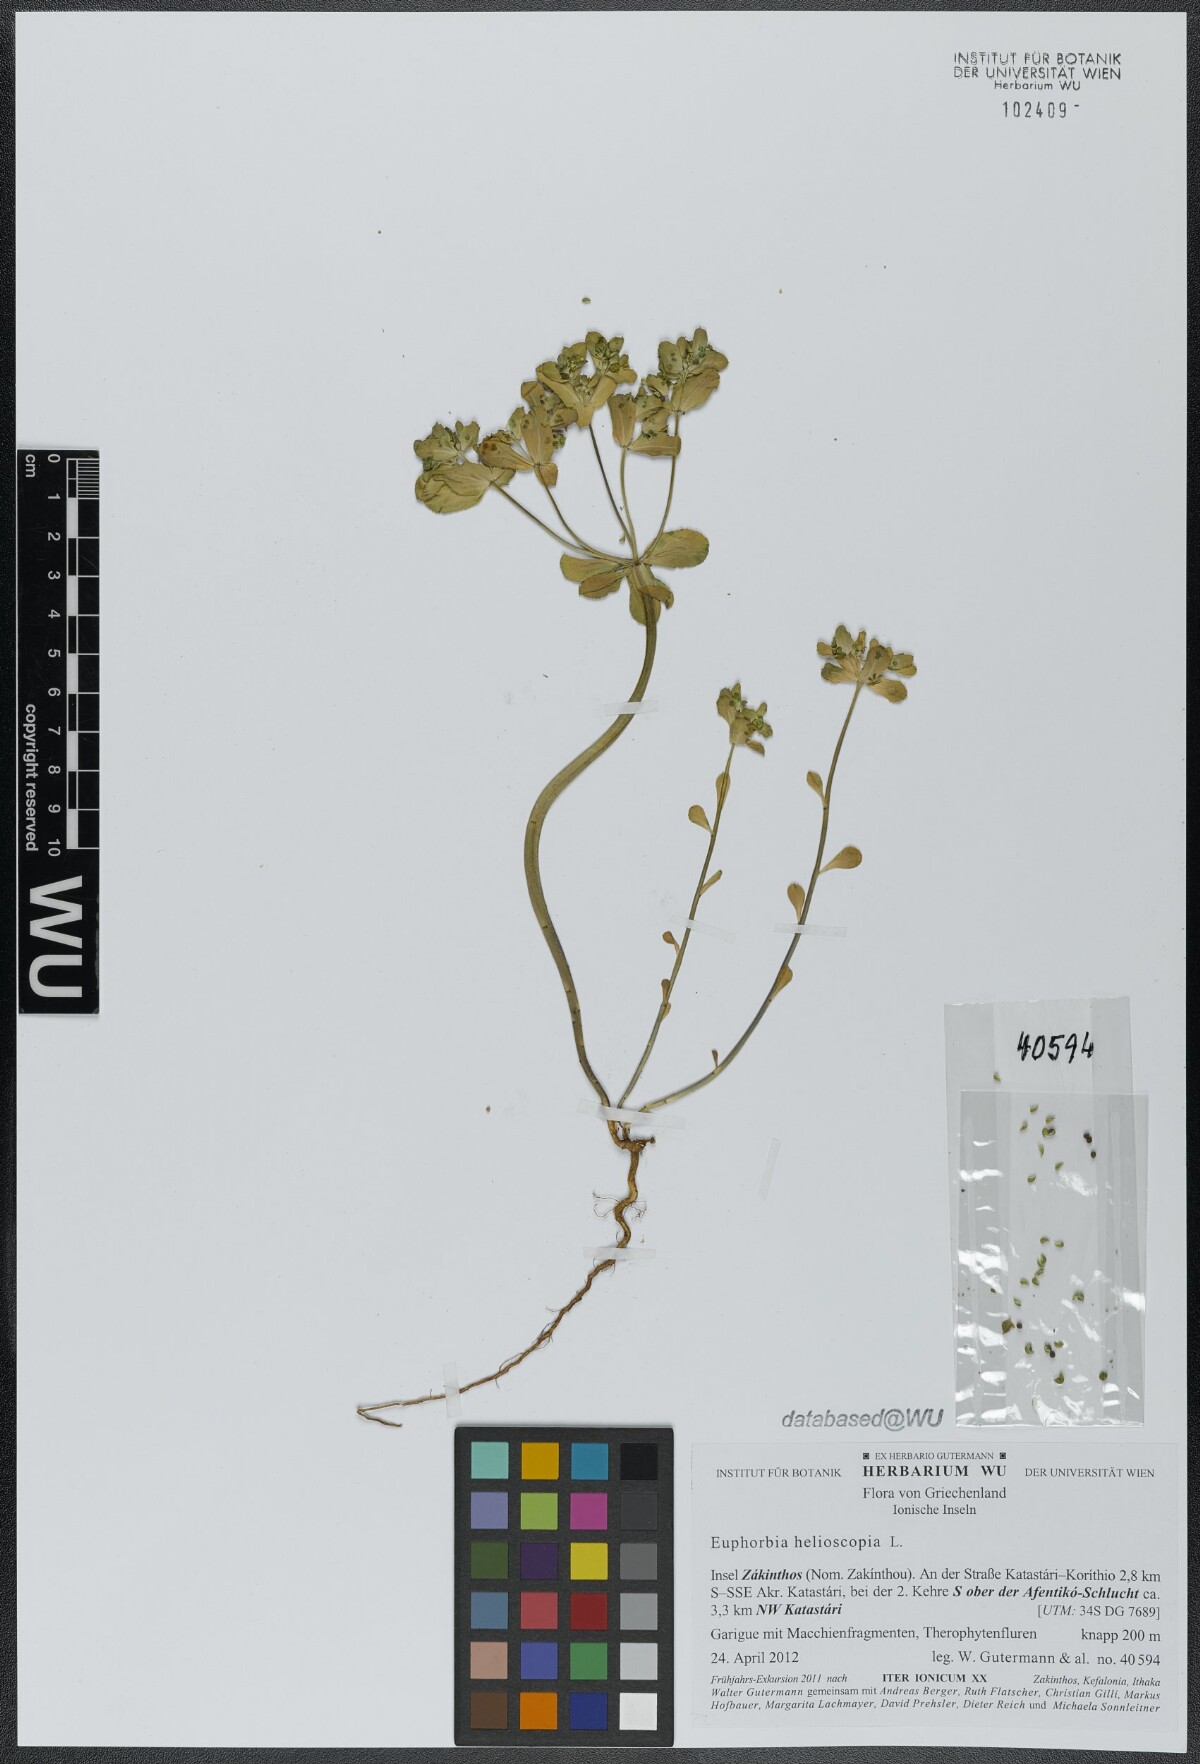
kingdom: Plantae
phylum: Tracheophyta
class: Magnoliopsida
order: Malpighiales
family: Euphorbiaceae
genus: Euphorbia
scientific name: Euphorbia helioscopia
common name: Sun spurge
